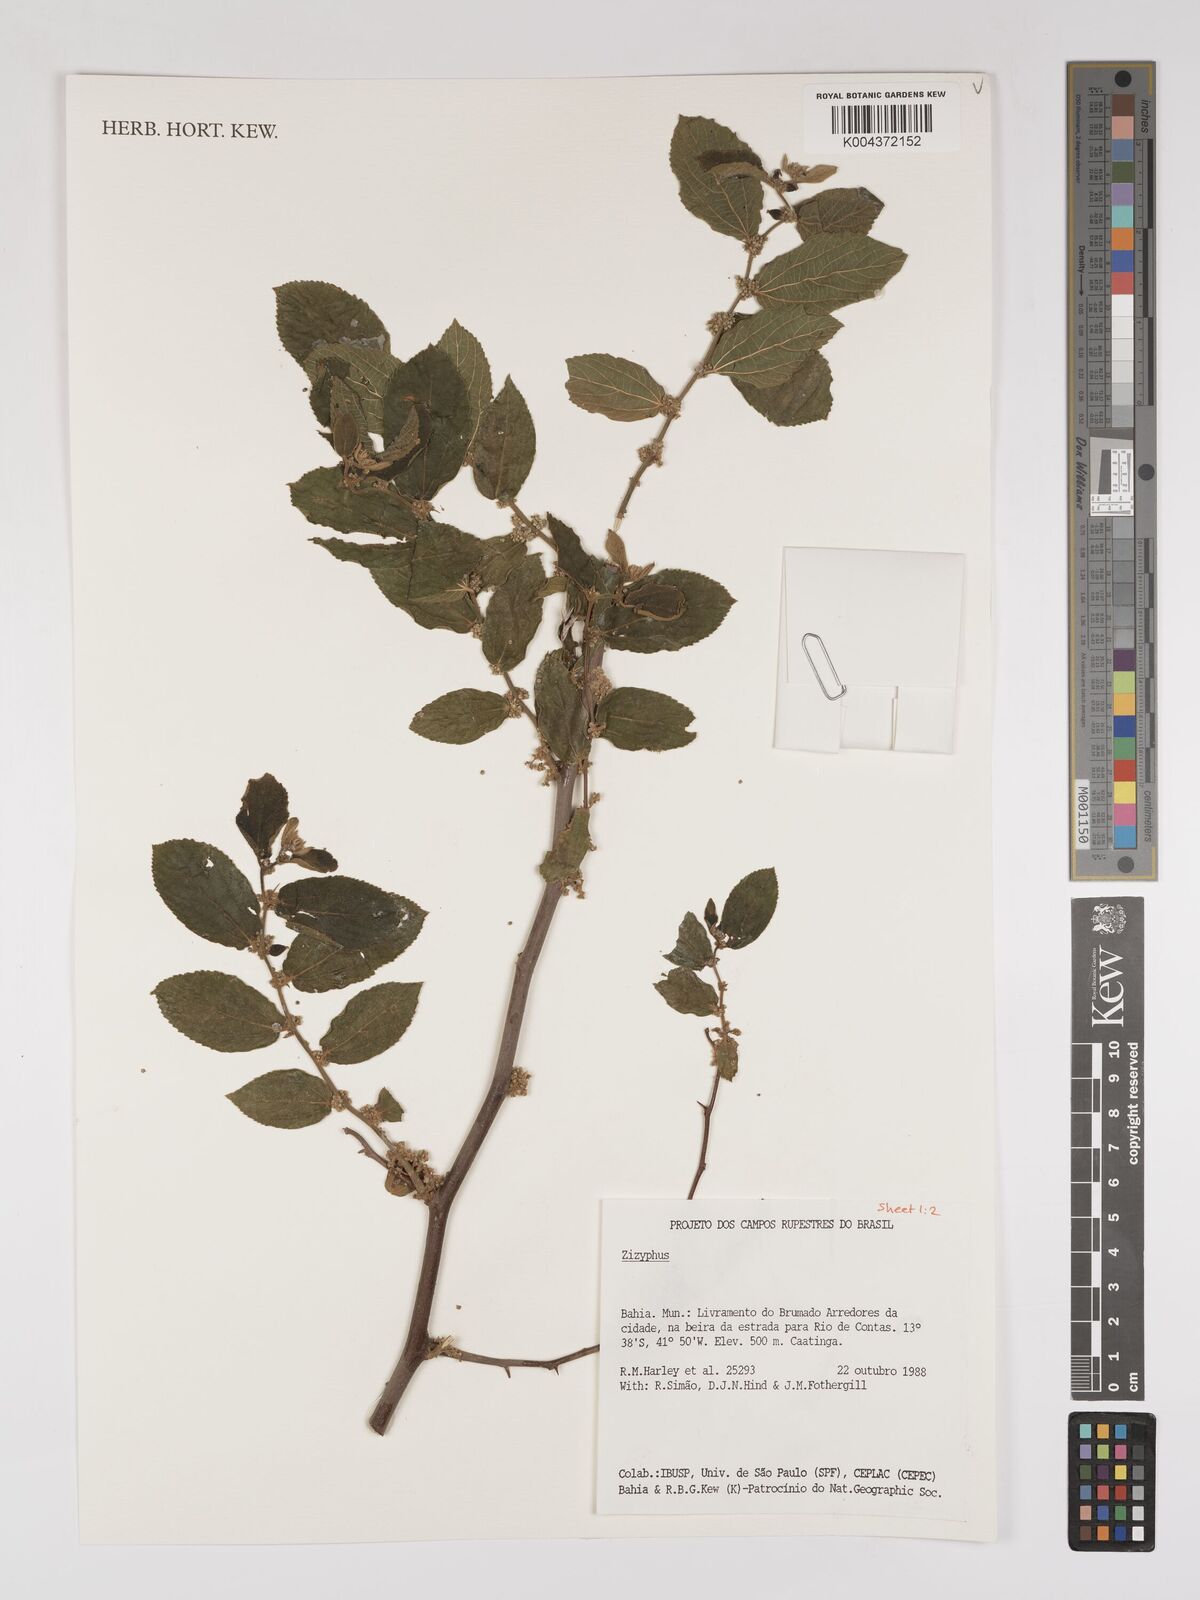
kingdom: Plantae
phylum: Tracheophyta
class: Magnoliopsida
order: Rosales
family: Rhamnaceae
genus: Ziziphus
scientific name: Ziziphus
